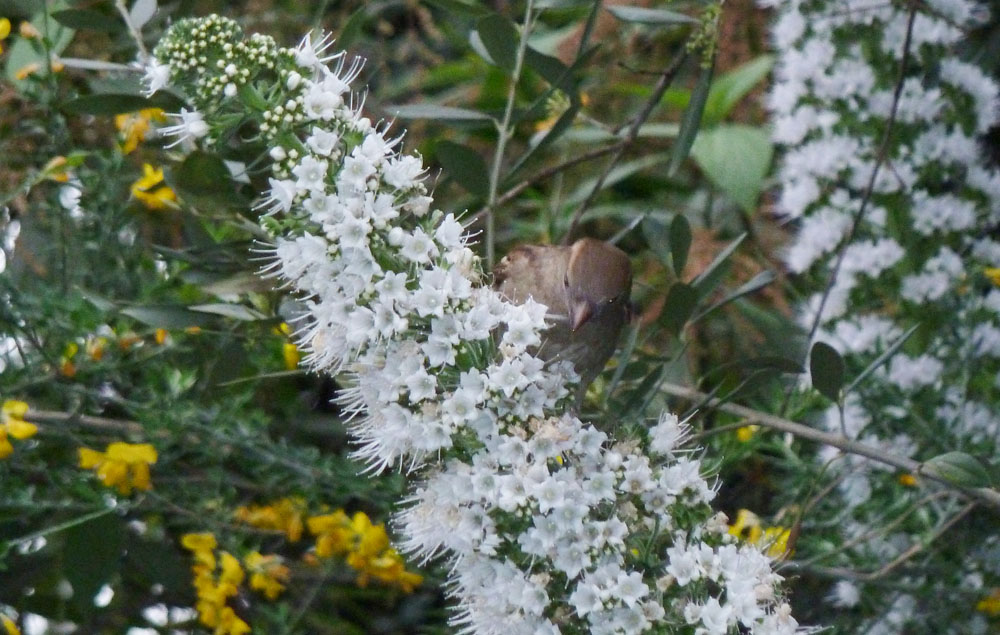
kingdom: Animalia
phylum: Chordata
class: Aves
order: Passeriformes
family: Passeridae
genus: Passer
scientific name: Passer domesticus
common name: House sparrow
